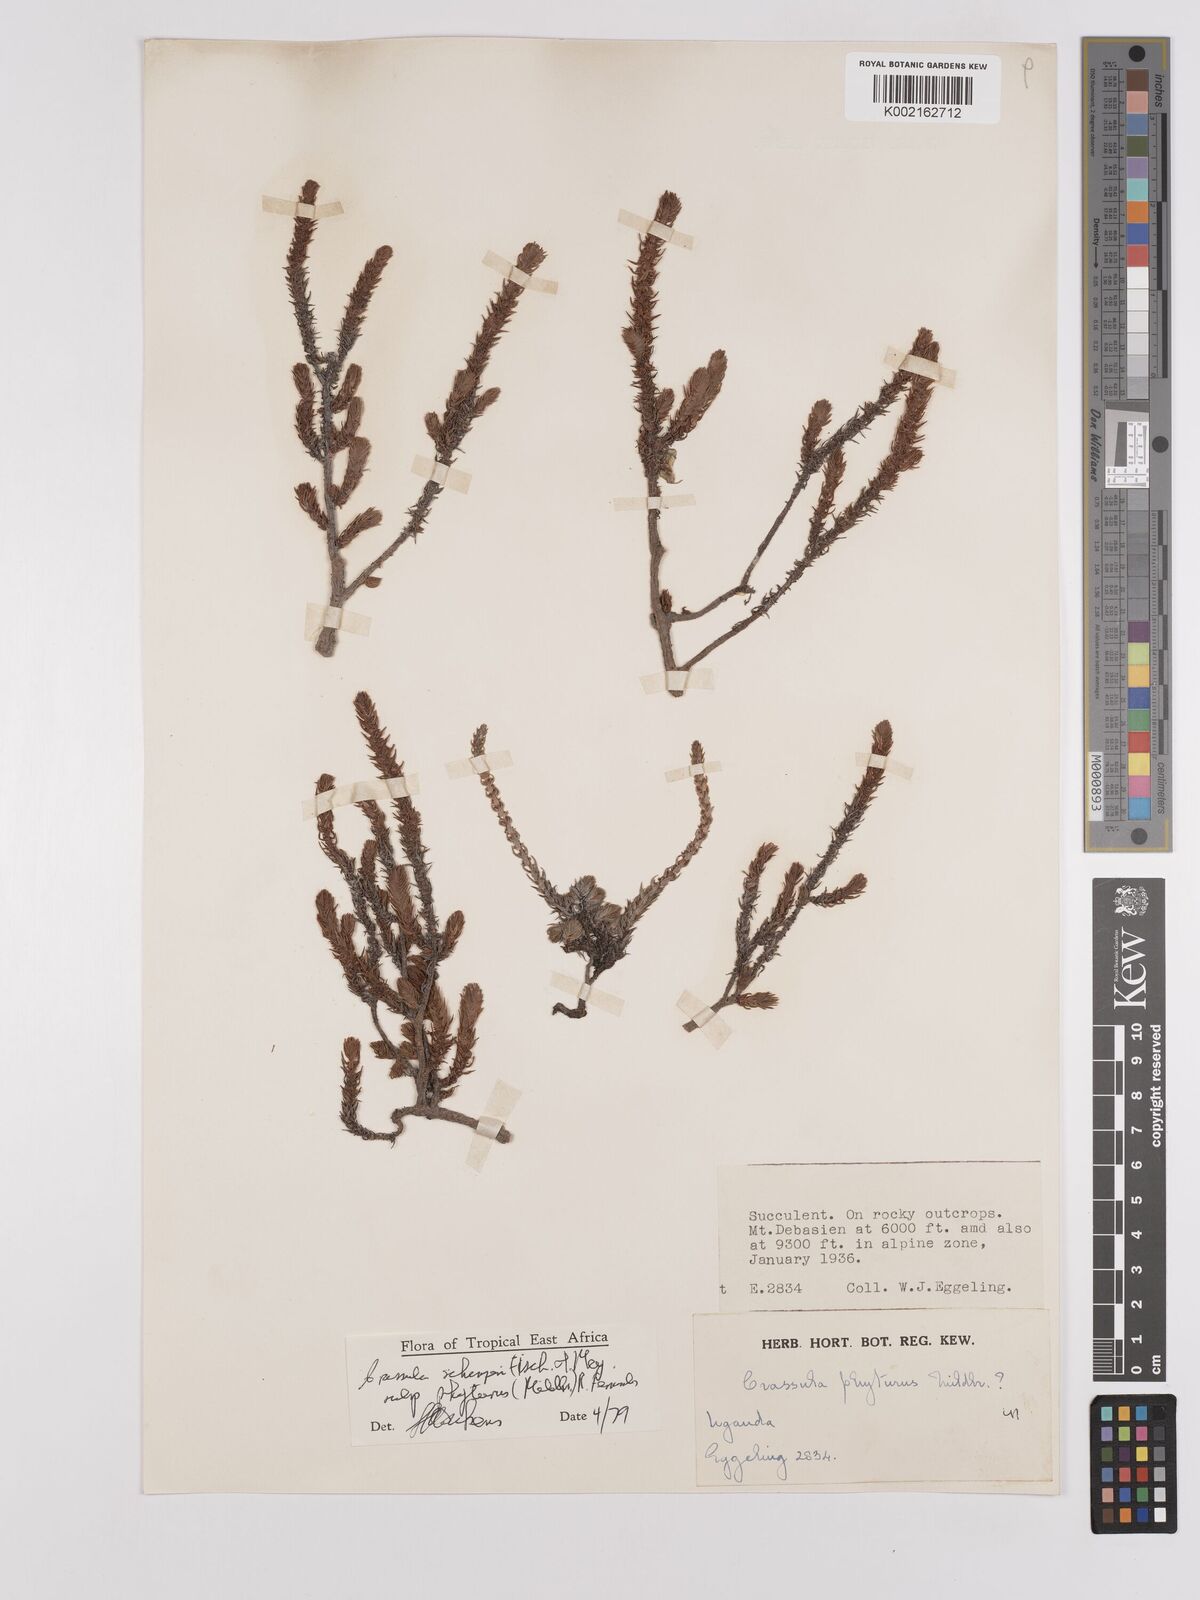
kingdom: Plantae
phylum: Tracheophyta
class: Magnoliopsida
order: Saxifragales
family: Crassulaceae
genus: Crassula
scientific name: Crassula schimperi
